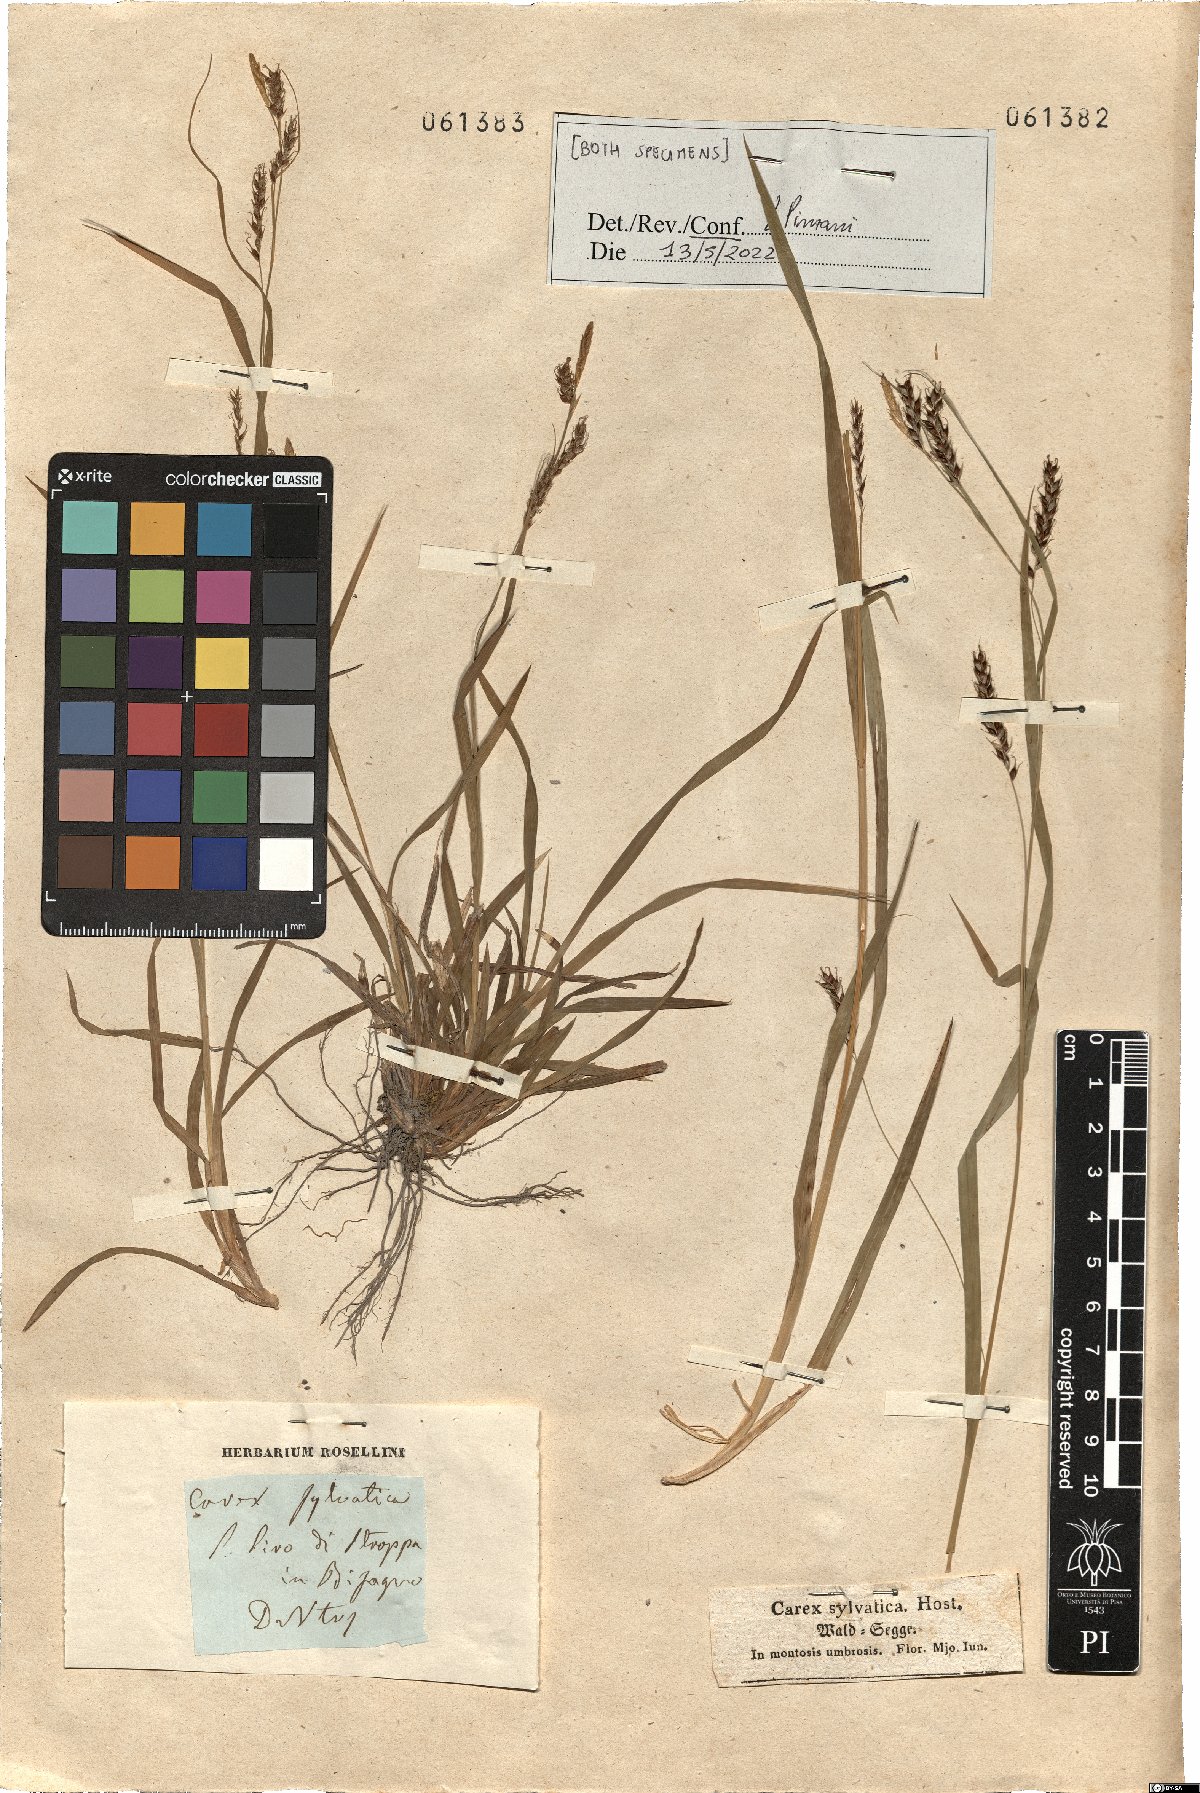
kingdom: Plantae
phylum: Tracheophyta
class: Liliopsida
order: Poales
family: Cyperaceae
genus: Carex
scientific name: Carex sylvatica
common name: Wood-sedge
